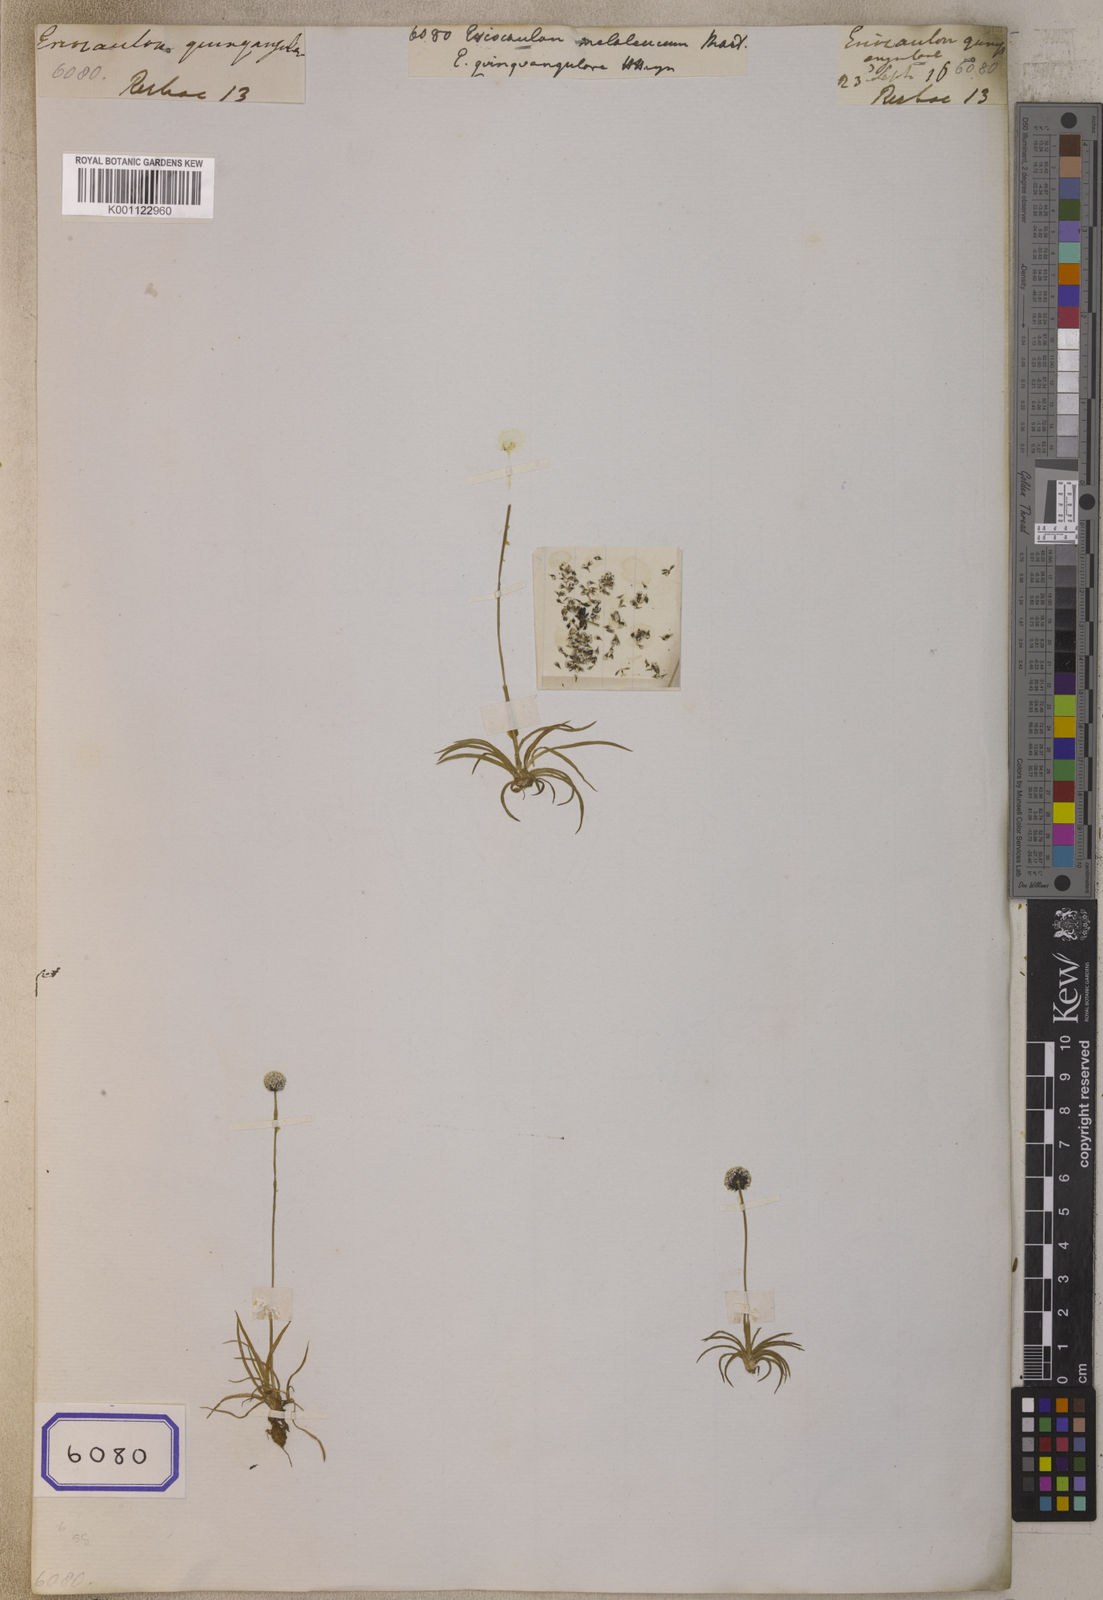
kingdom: Plantae
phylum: Tracheophyta
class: Liliopsida
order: Poales
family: Eriocaulaceae
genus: Eriocaulon
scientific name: Eriocaulon
